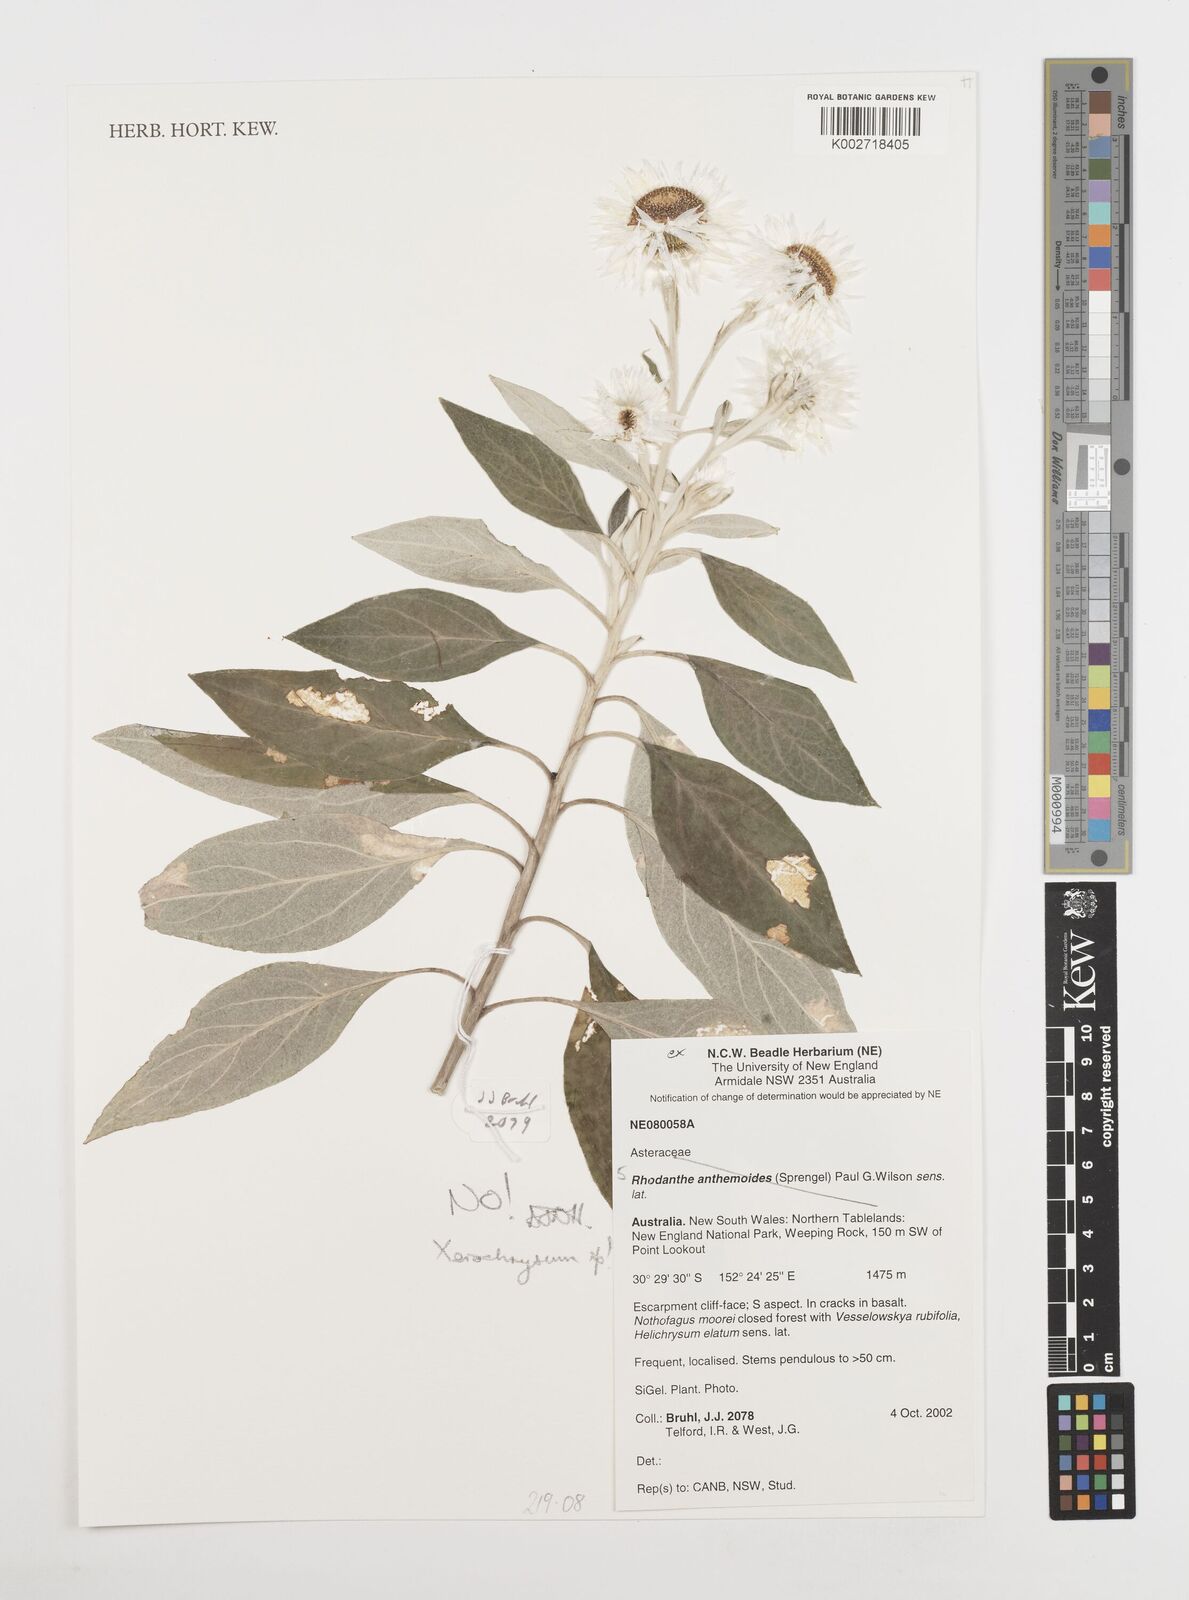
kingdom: Plantae
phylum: Tracheophyta
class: Magnoliopsida
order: Asterales
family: Asteraceae
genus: Xerochrysum
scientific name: Xerochrysum
